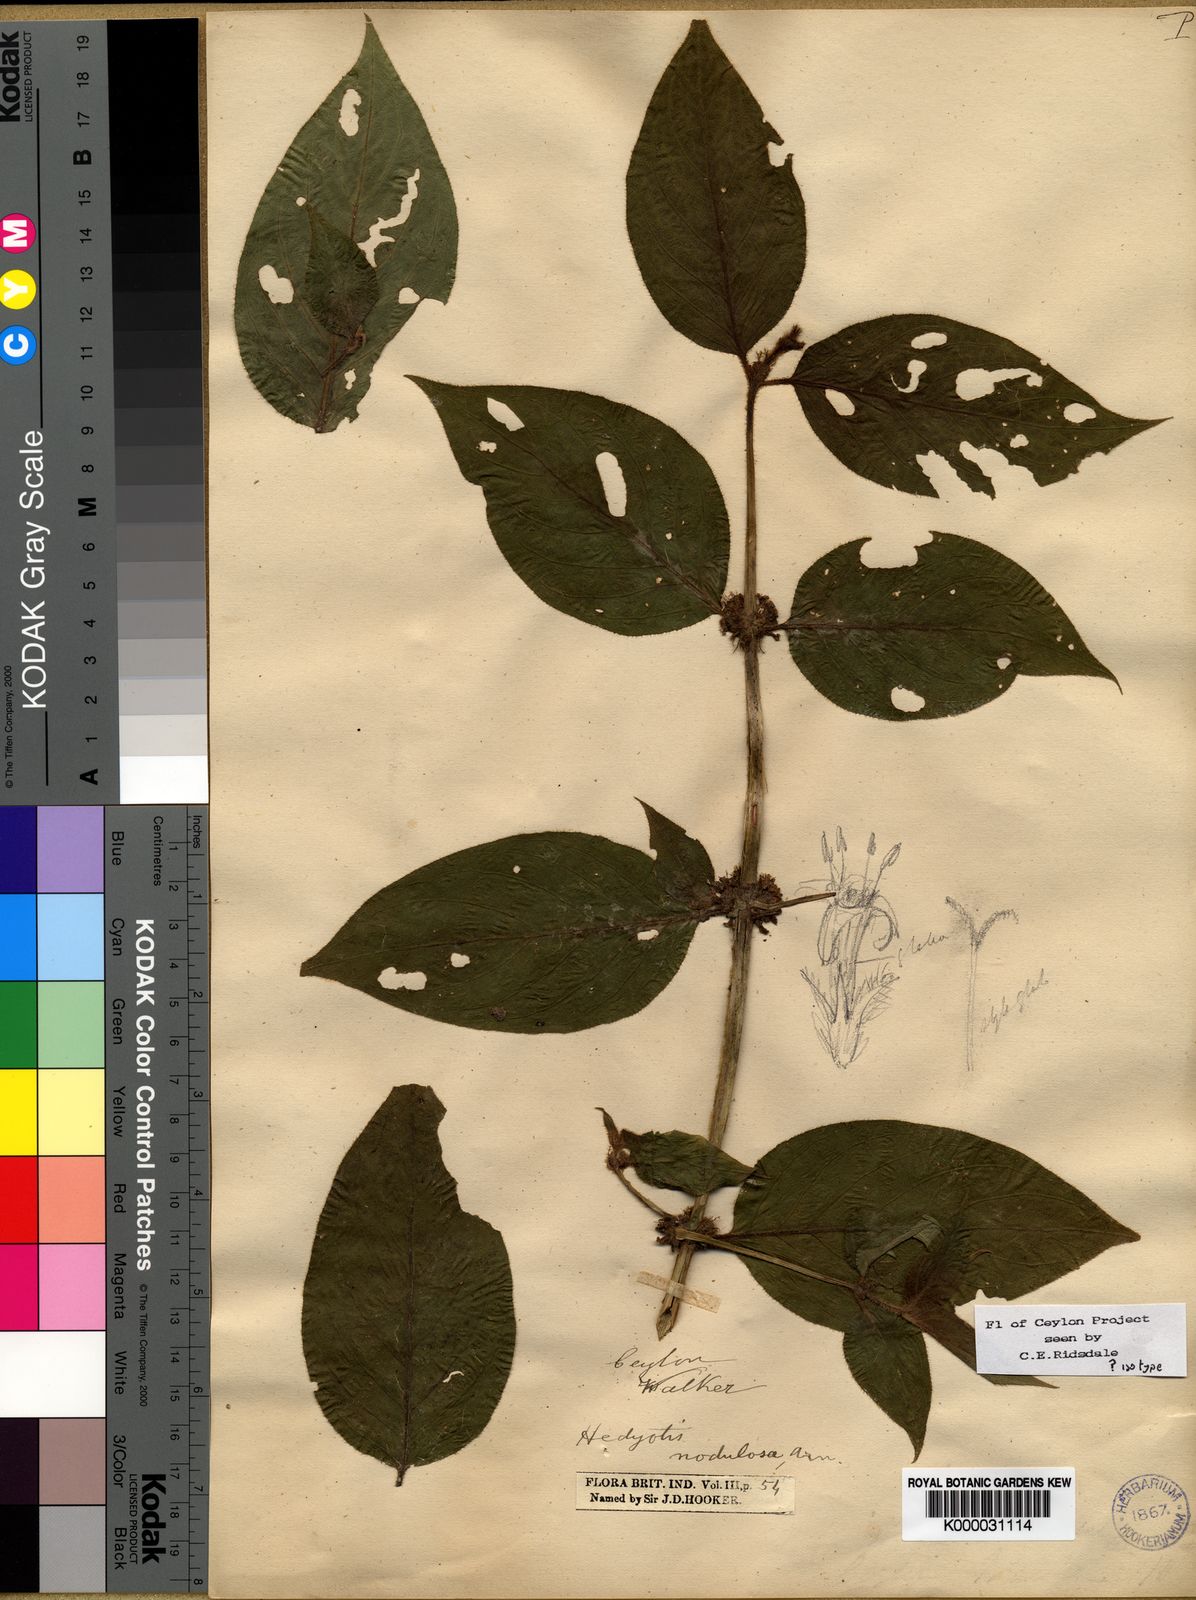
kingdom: Plantae
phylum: Tracheophyta
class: Magnoliopsida
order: Gentianales
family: Rubiaceae
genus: Hedyotis
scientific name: Hedyotis nodulosa
